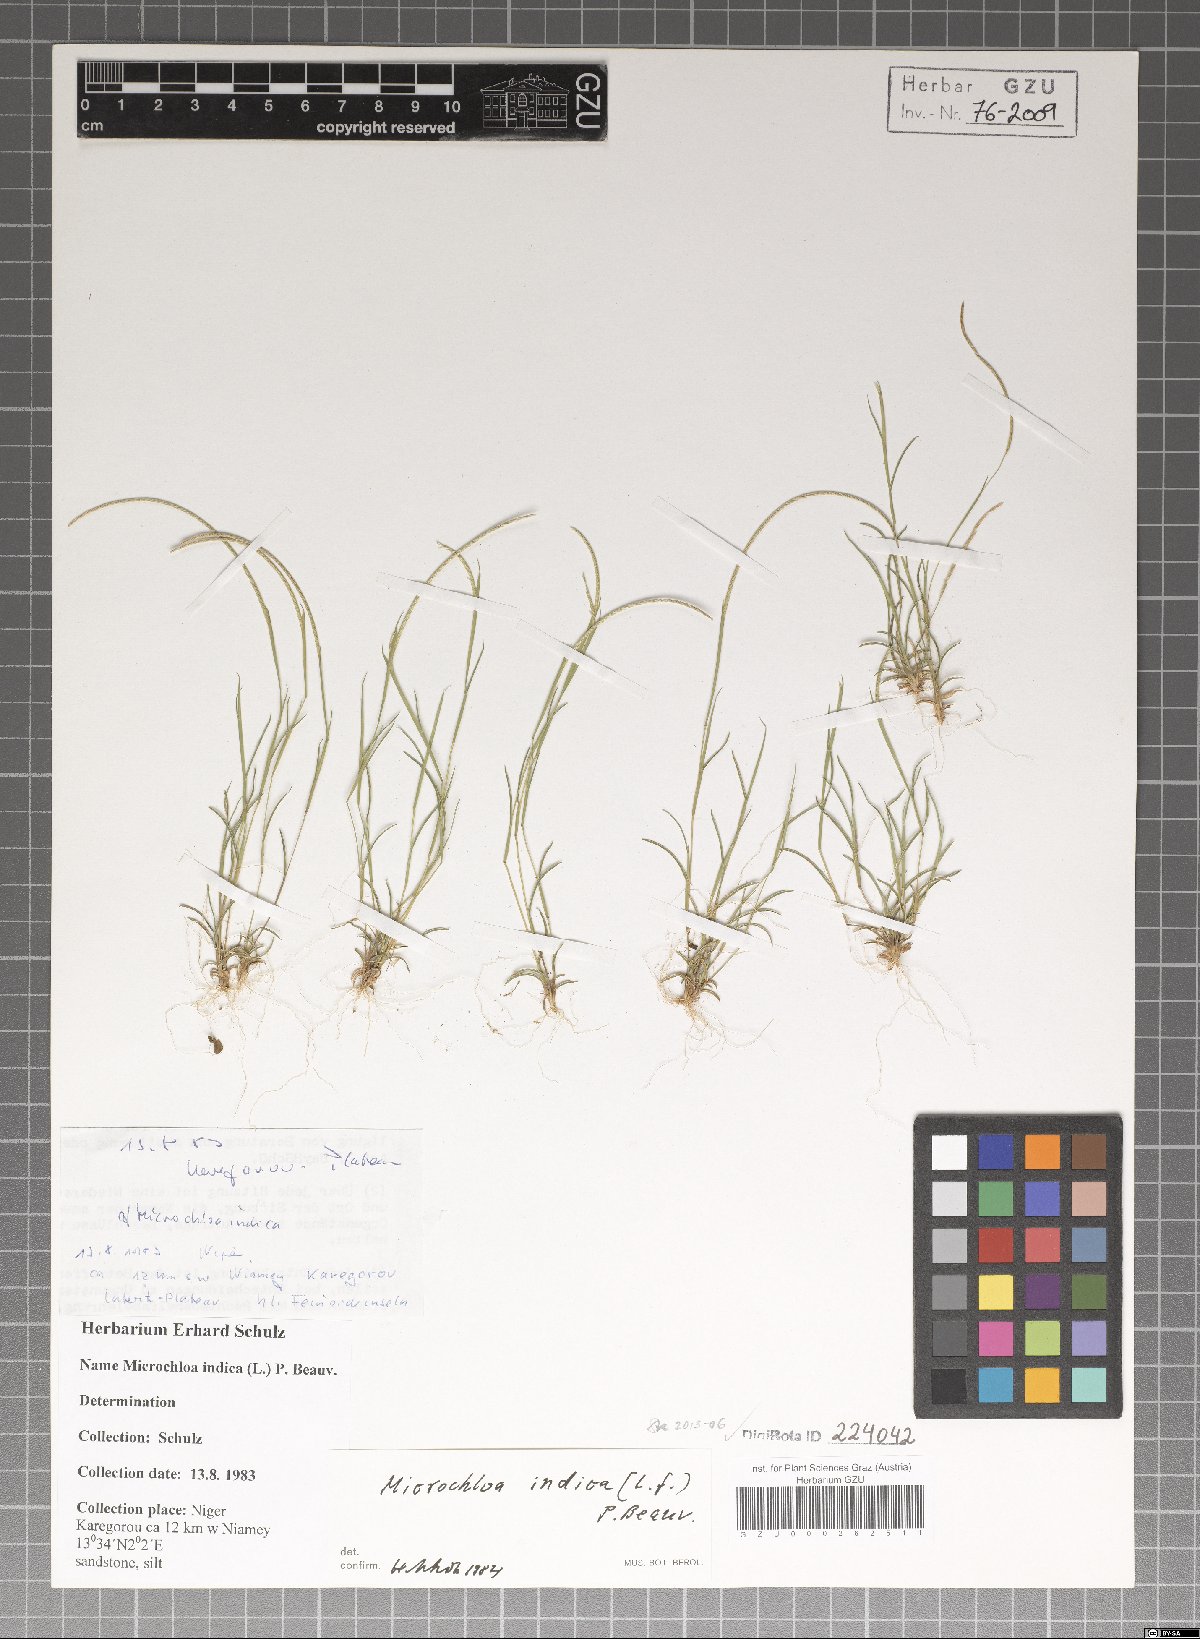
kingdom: Plantae
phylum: Tracheophyta
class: Liliopsida
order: Poales
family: Poaceae
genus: Microchloa
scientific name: Microchloa indica
